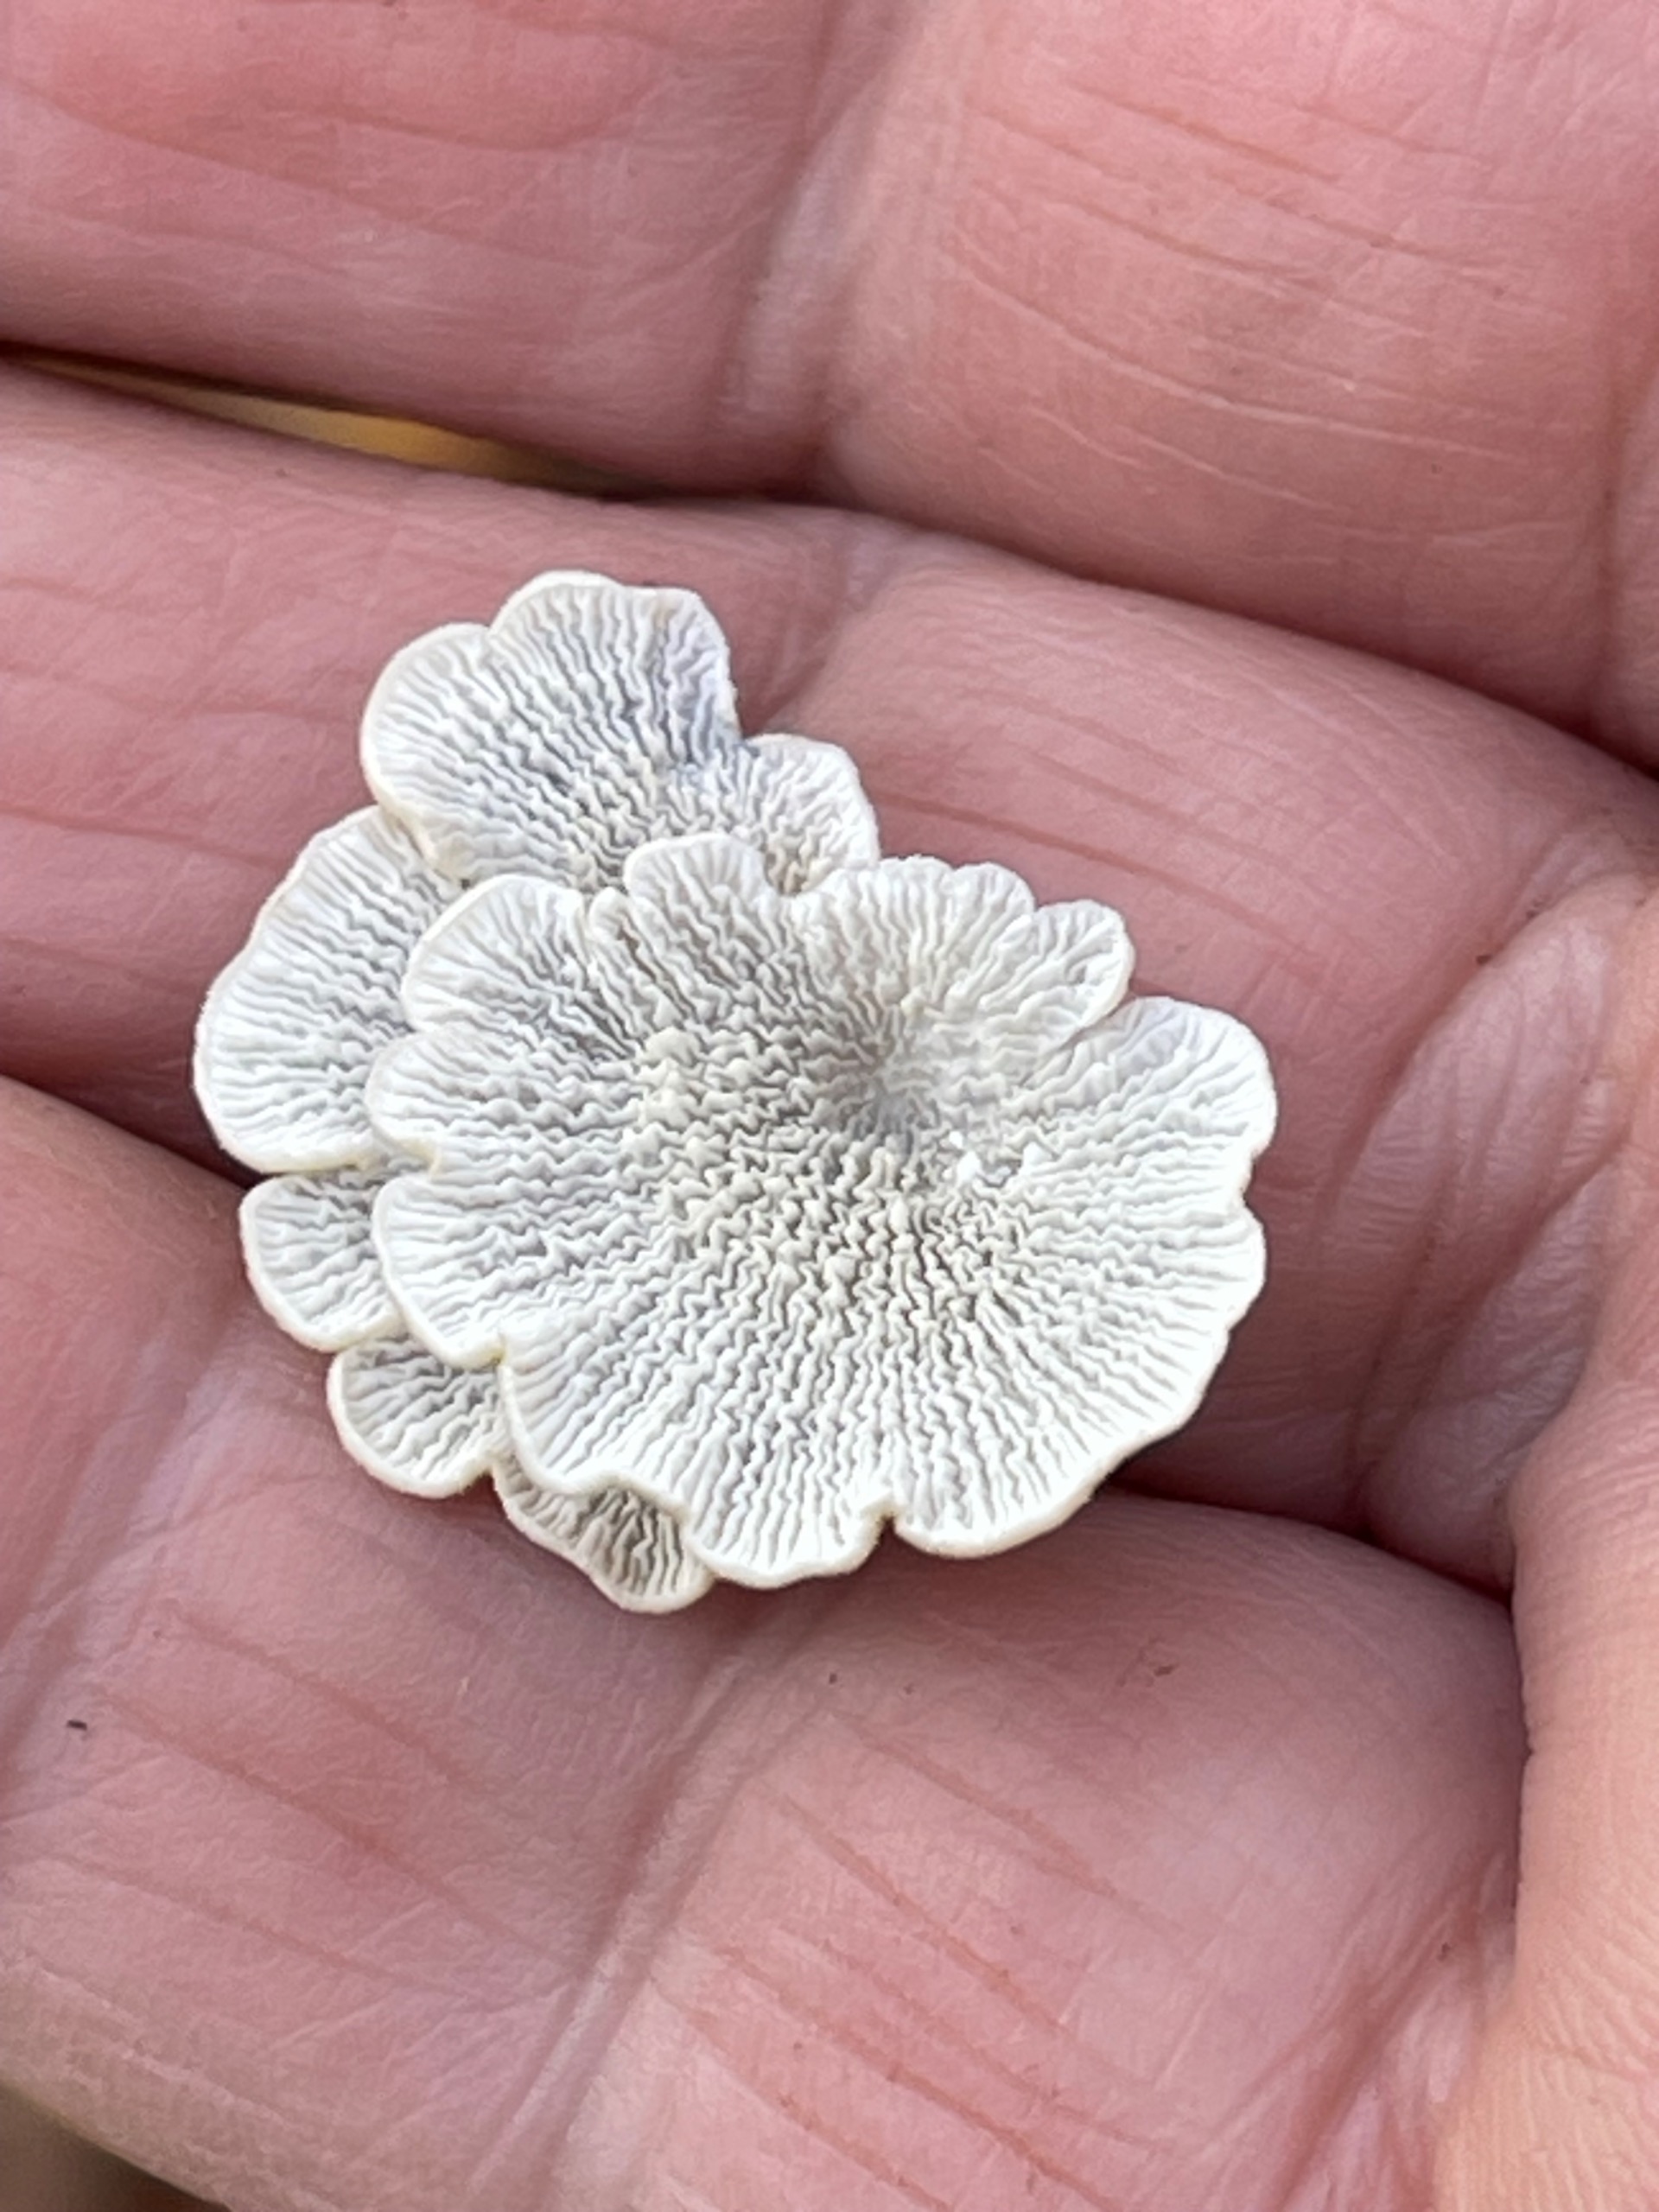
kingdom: Fungi
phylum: Basidiomycota
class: Agaricomycetes
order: Amylocorticiales
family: Amylocorticiaceae
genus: Plicaturopsis
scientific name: Plicaturopsis crispa
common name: Krusblad
